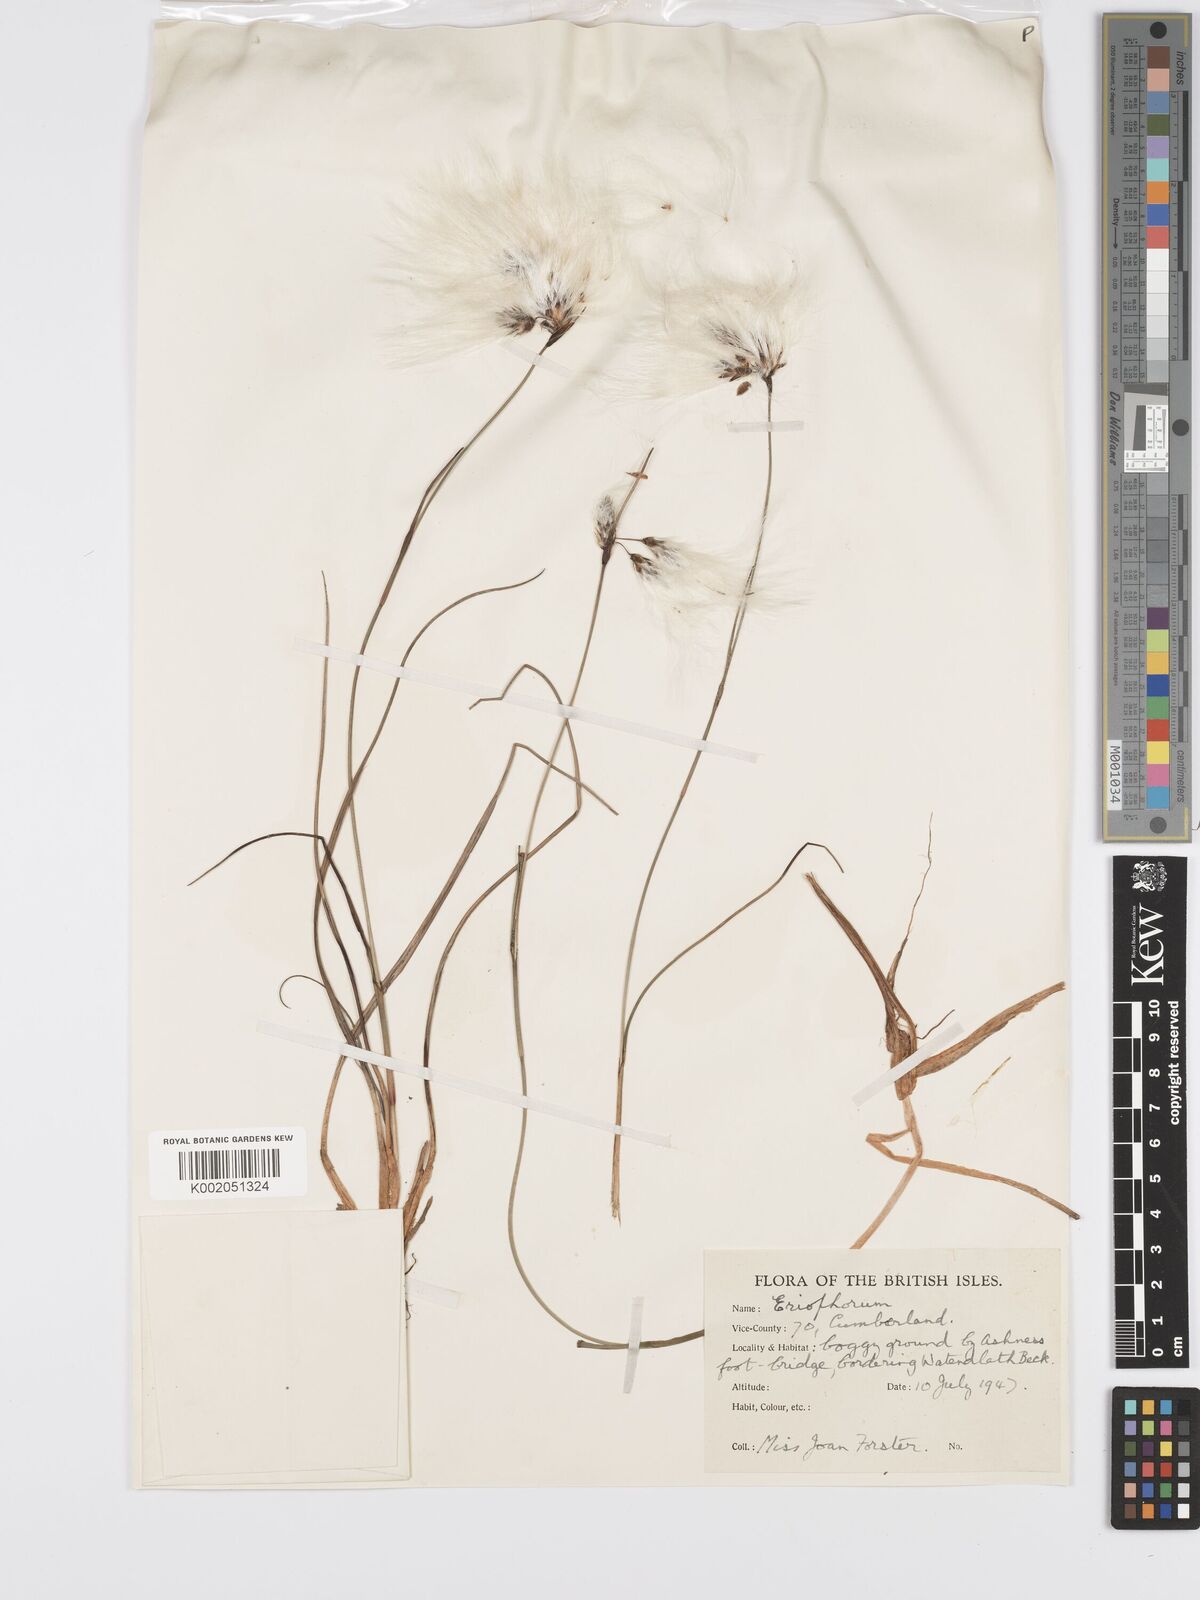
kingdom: Plantae
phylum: Tracheophyta
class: Liliopsida
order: Poales
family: Cyperaceae
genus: Eriophorum
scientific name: Eriophorum
